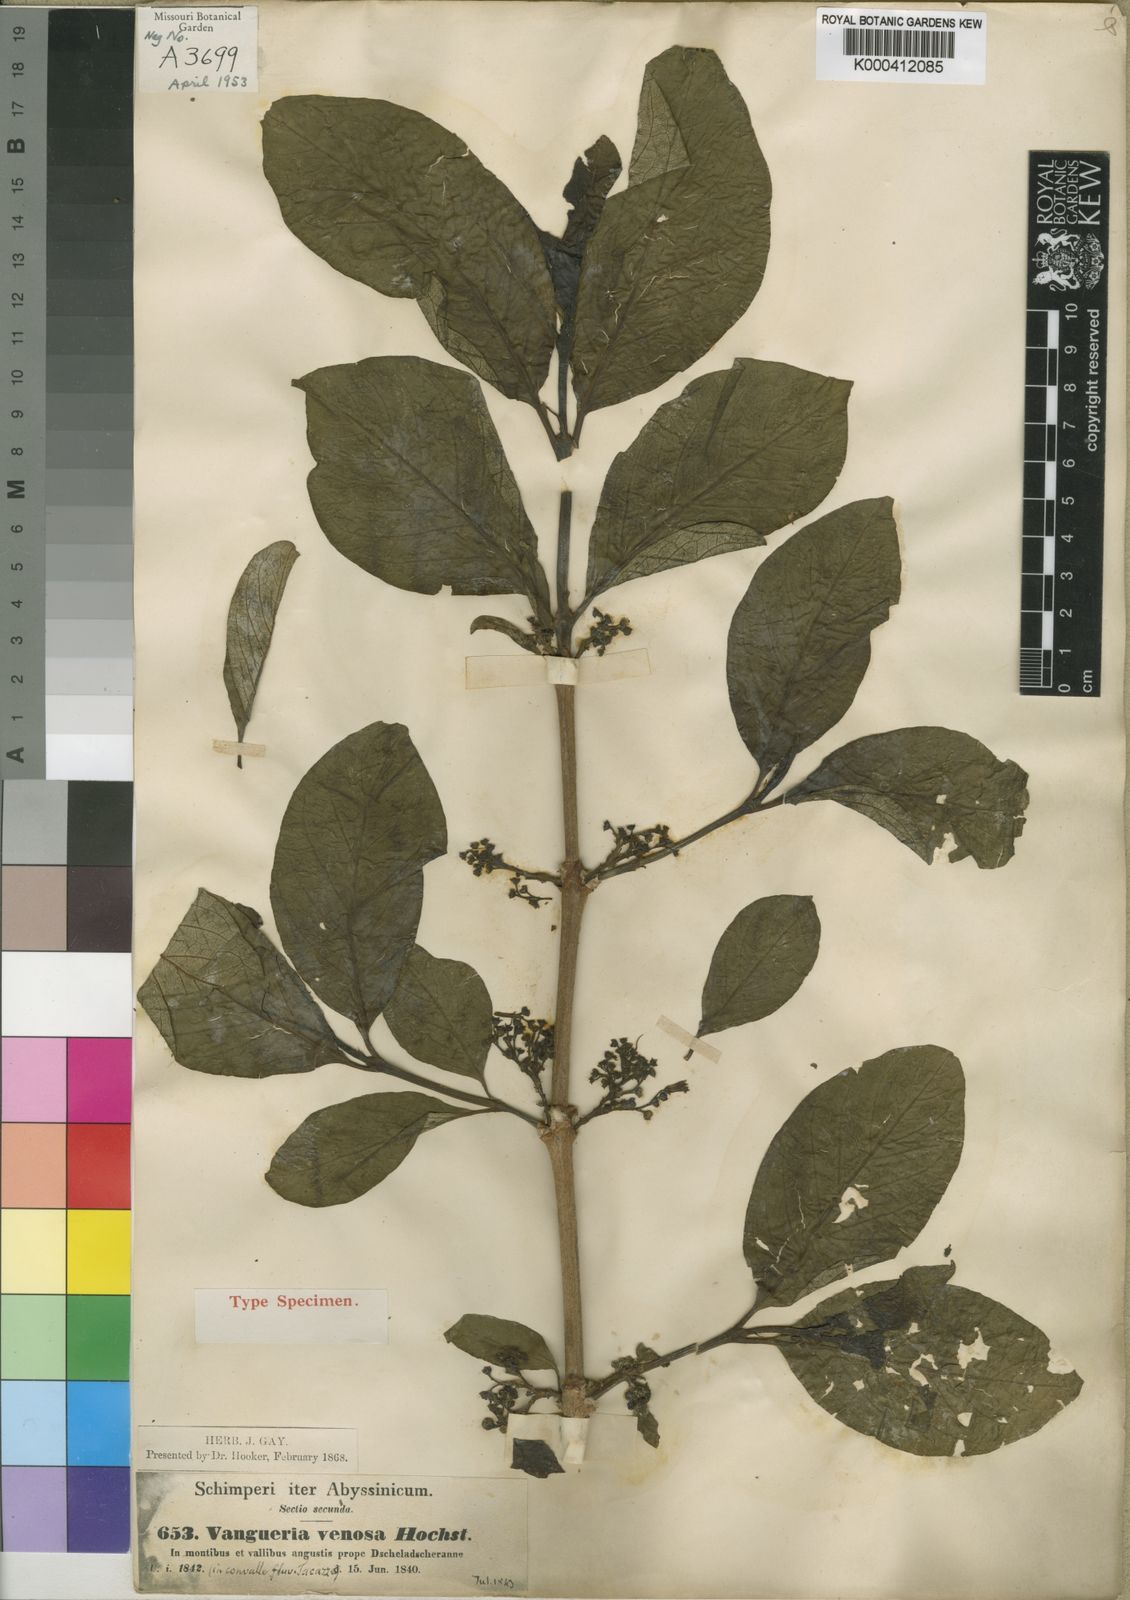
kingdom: Plantae
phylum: Tracheophyta
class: Magnoliopsida
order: Gentianales
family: Rubiaceae
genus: Vangueria
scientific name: Vangueria madagascariensis
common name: Smooth wild-medlar
